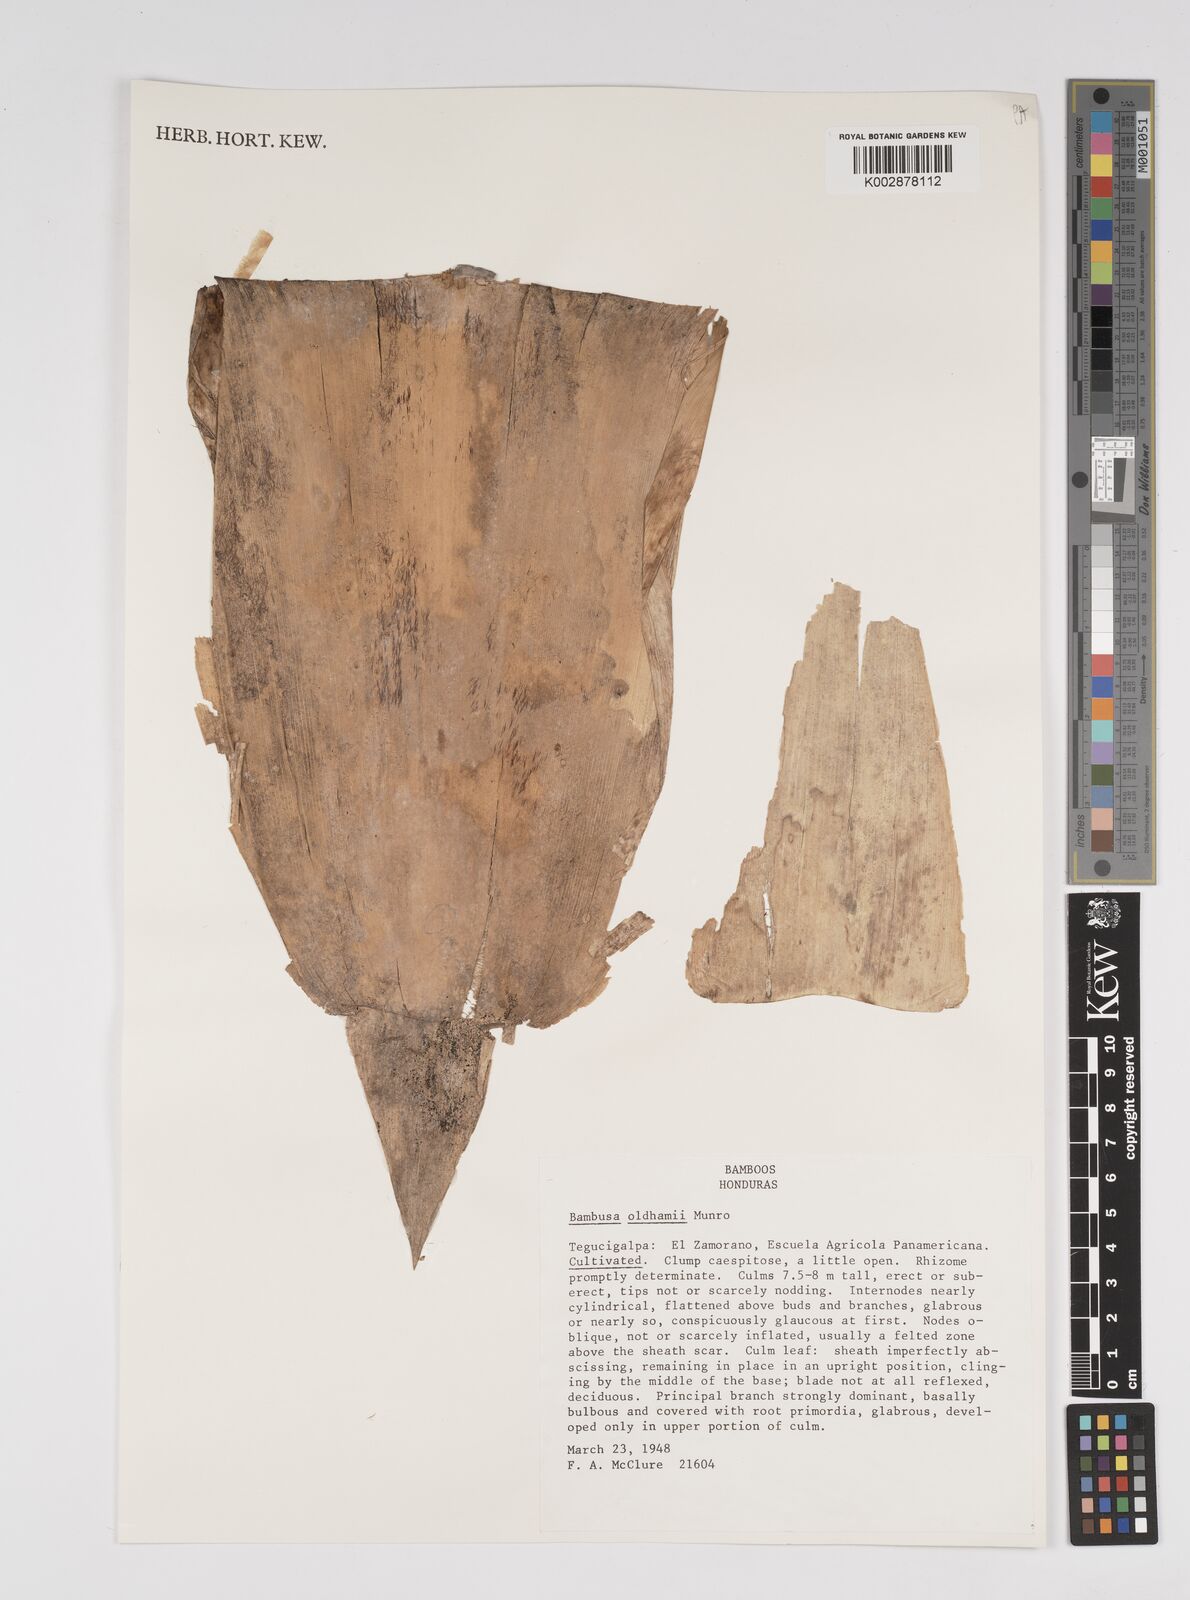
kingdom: Plantae
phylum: Tracheophyta
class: Liliopsida
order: Poales
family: Poaceae
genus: Bambusa
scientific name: Bambusa oldhamii
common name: Giant timber bamboo
